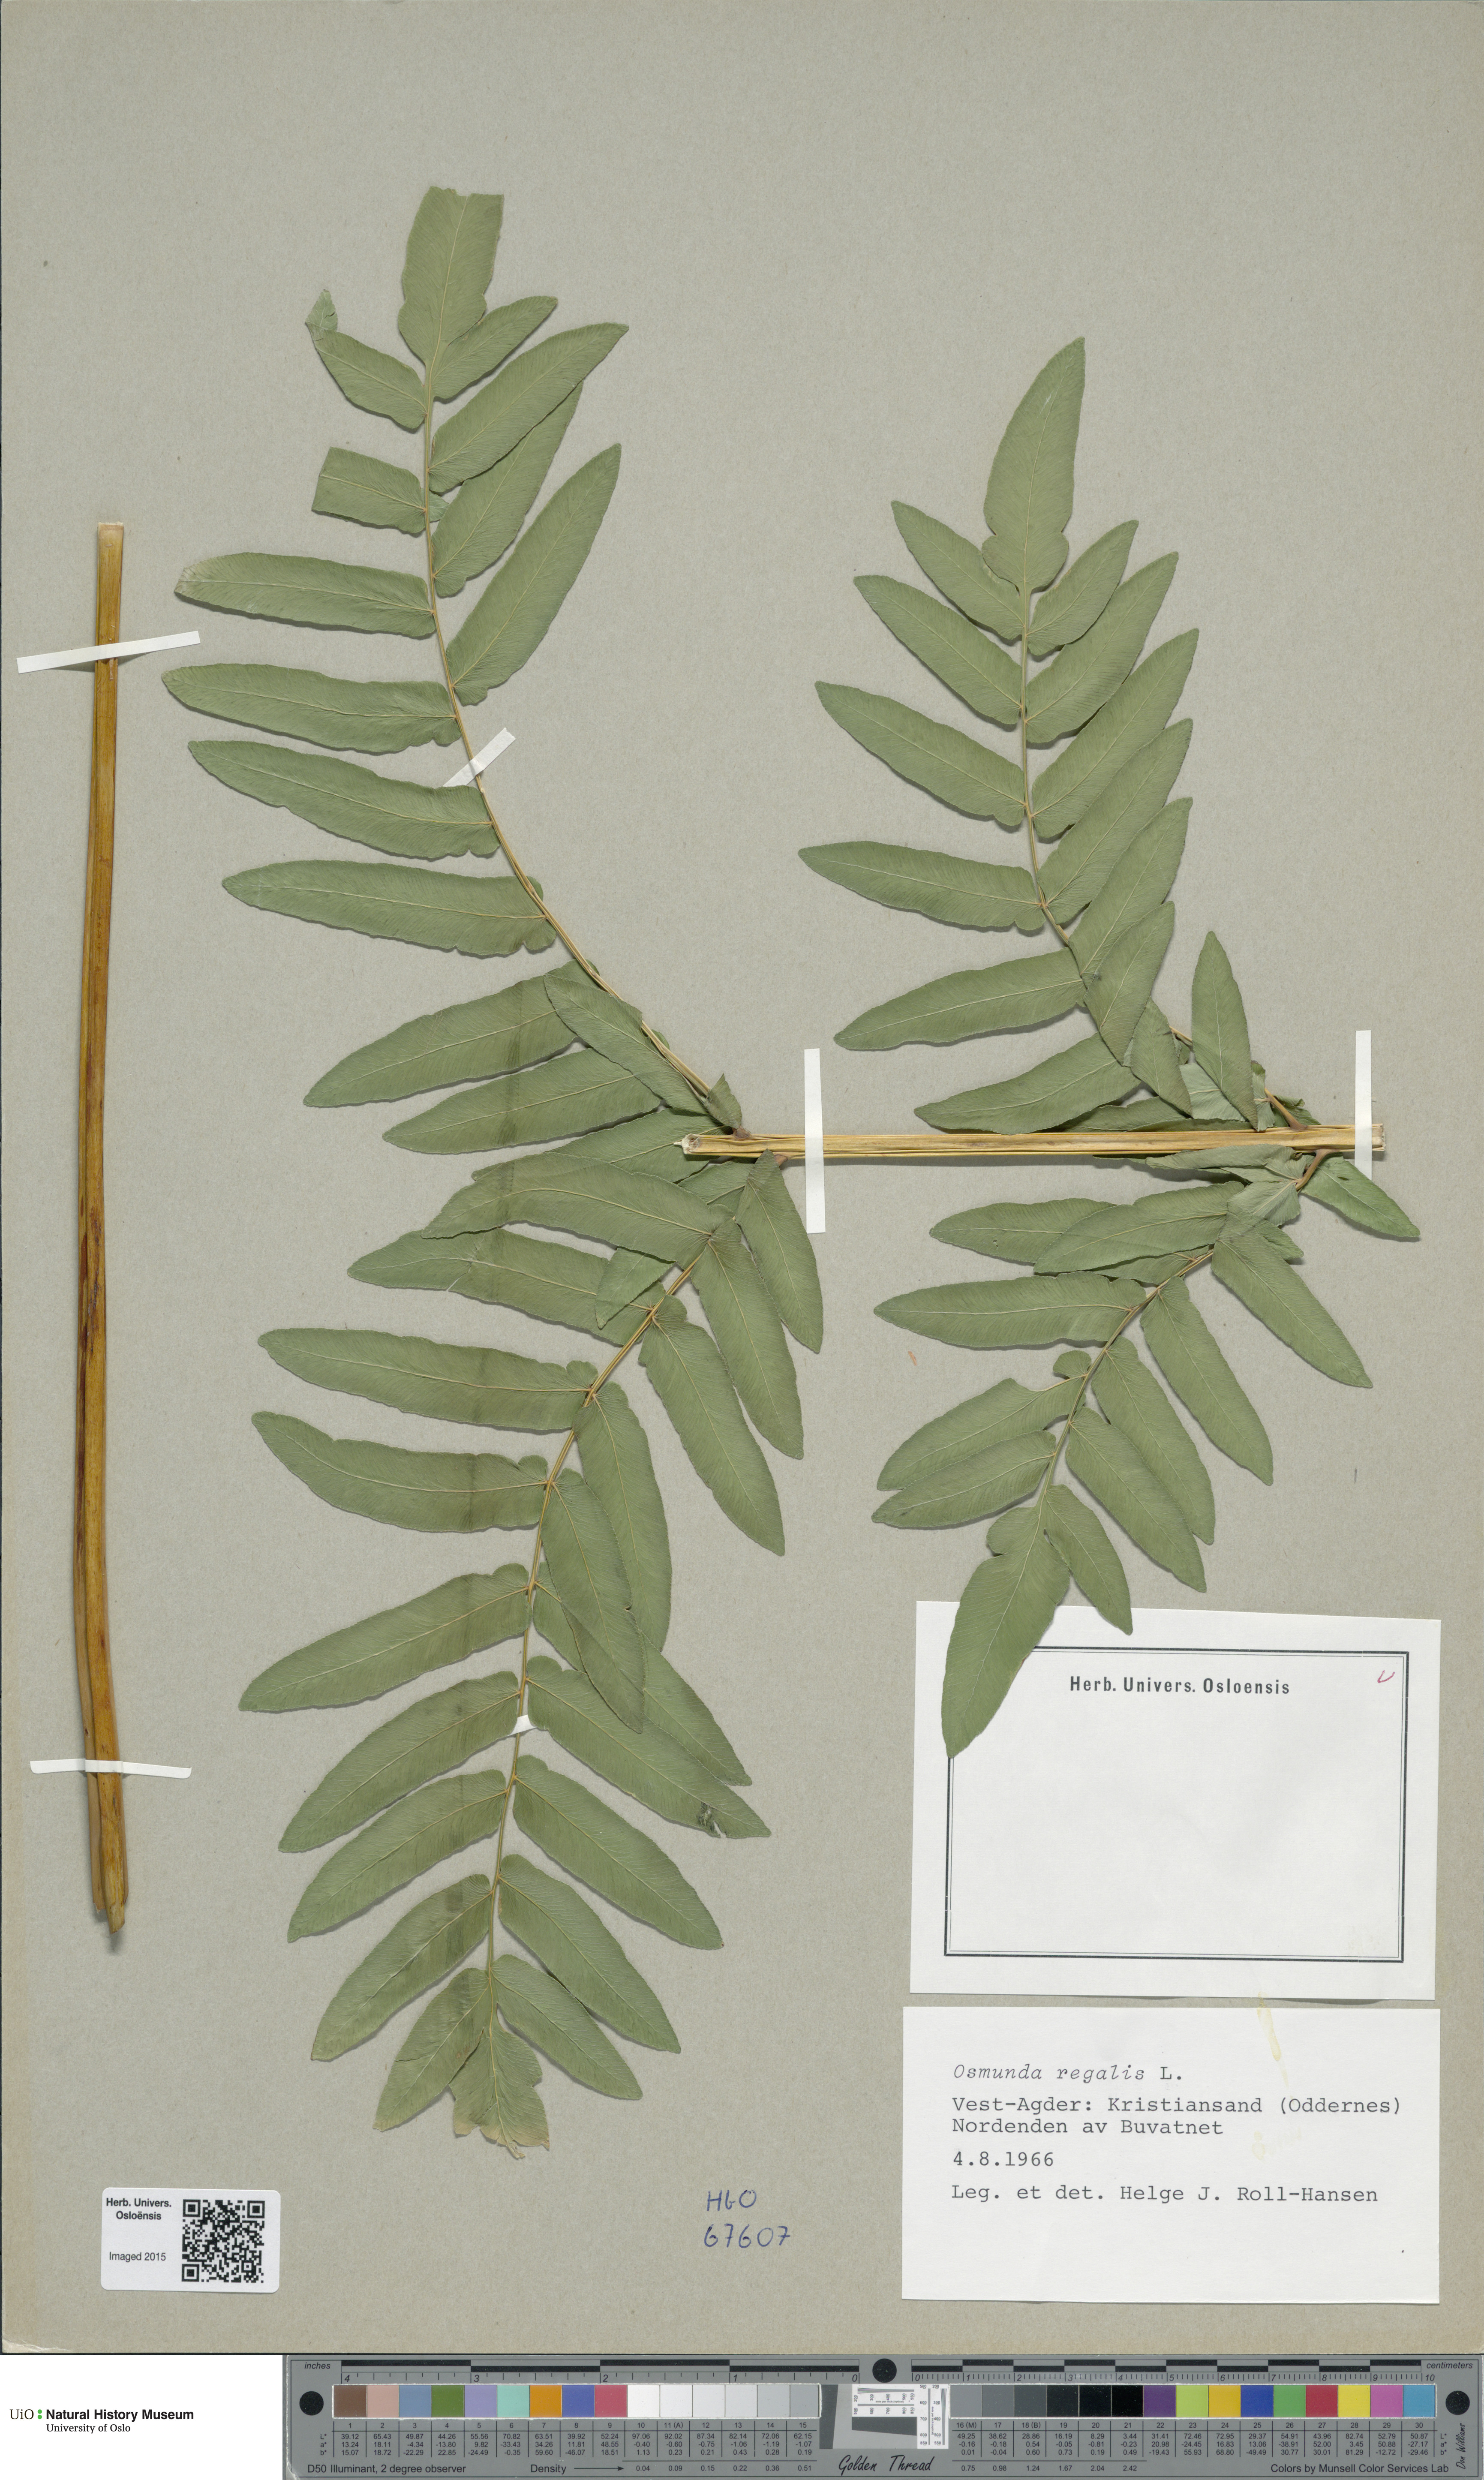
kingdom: Plantae
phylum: Tracheophyta
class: Polypodiopsida
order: Osmundales
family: Osmundaceae
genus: Osmunda
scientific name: Osmunda regalis
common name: Royal fern
